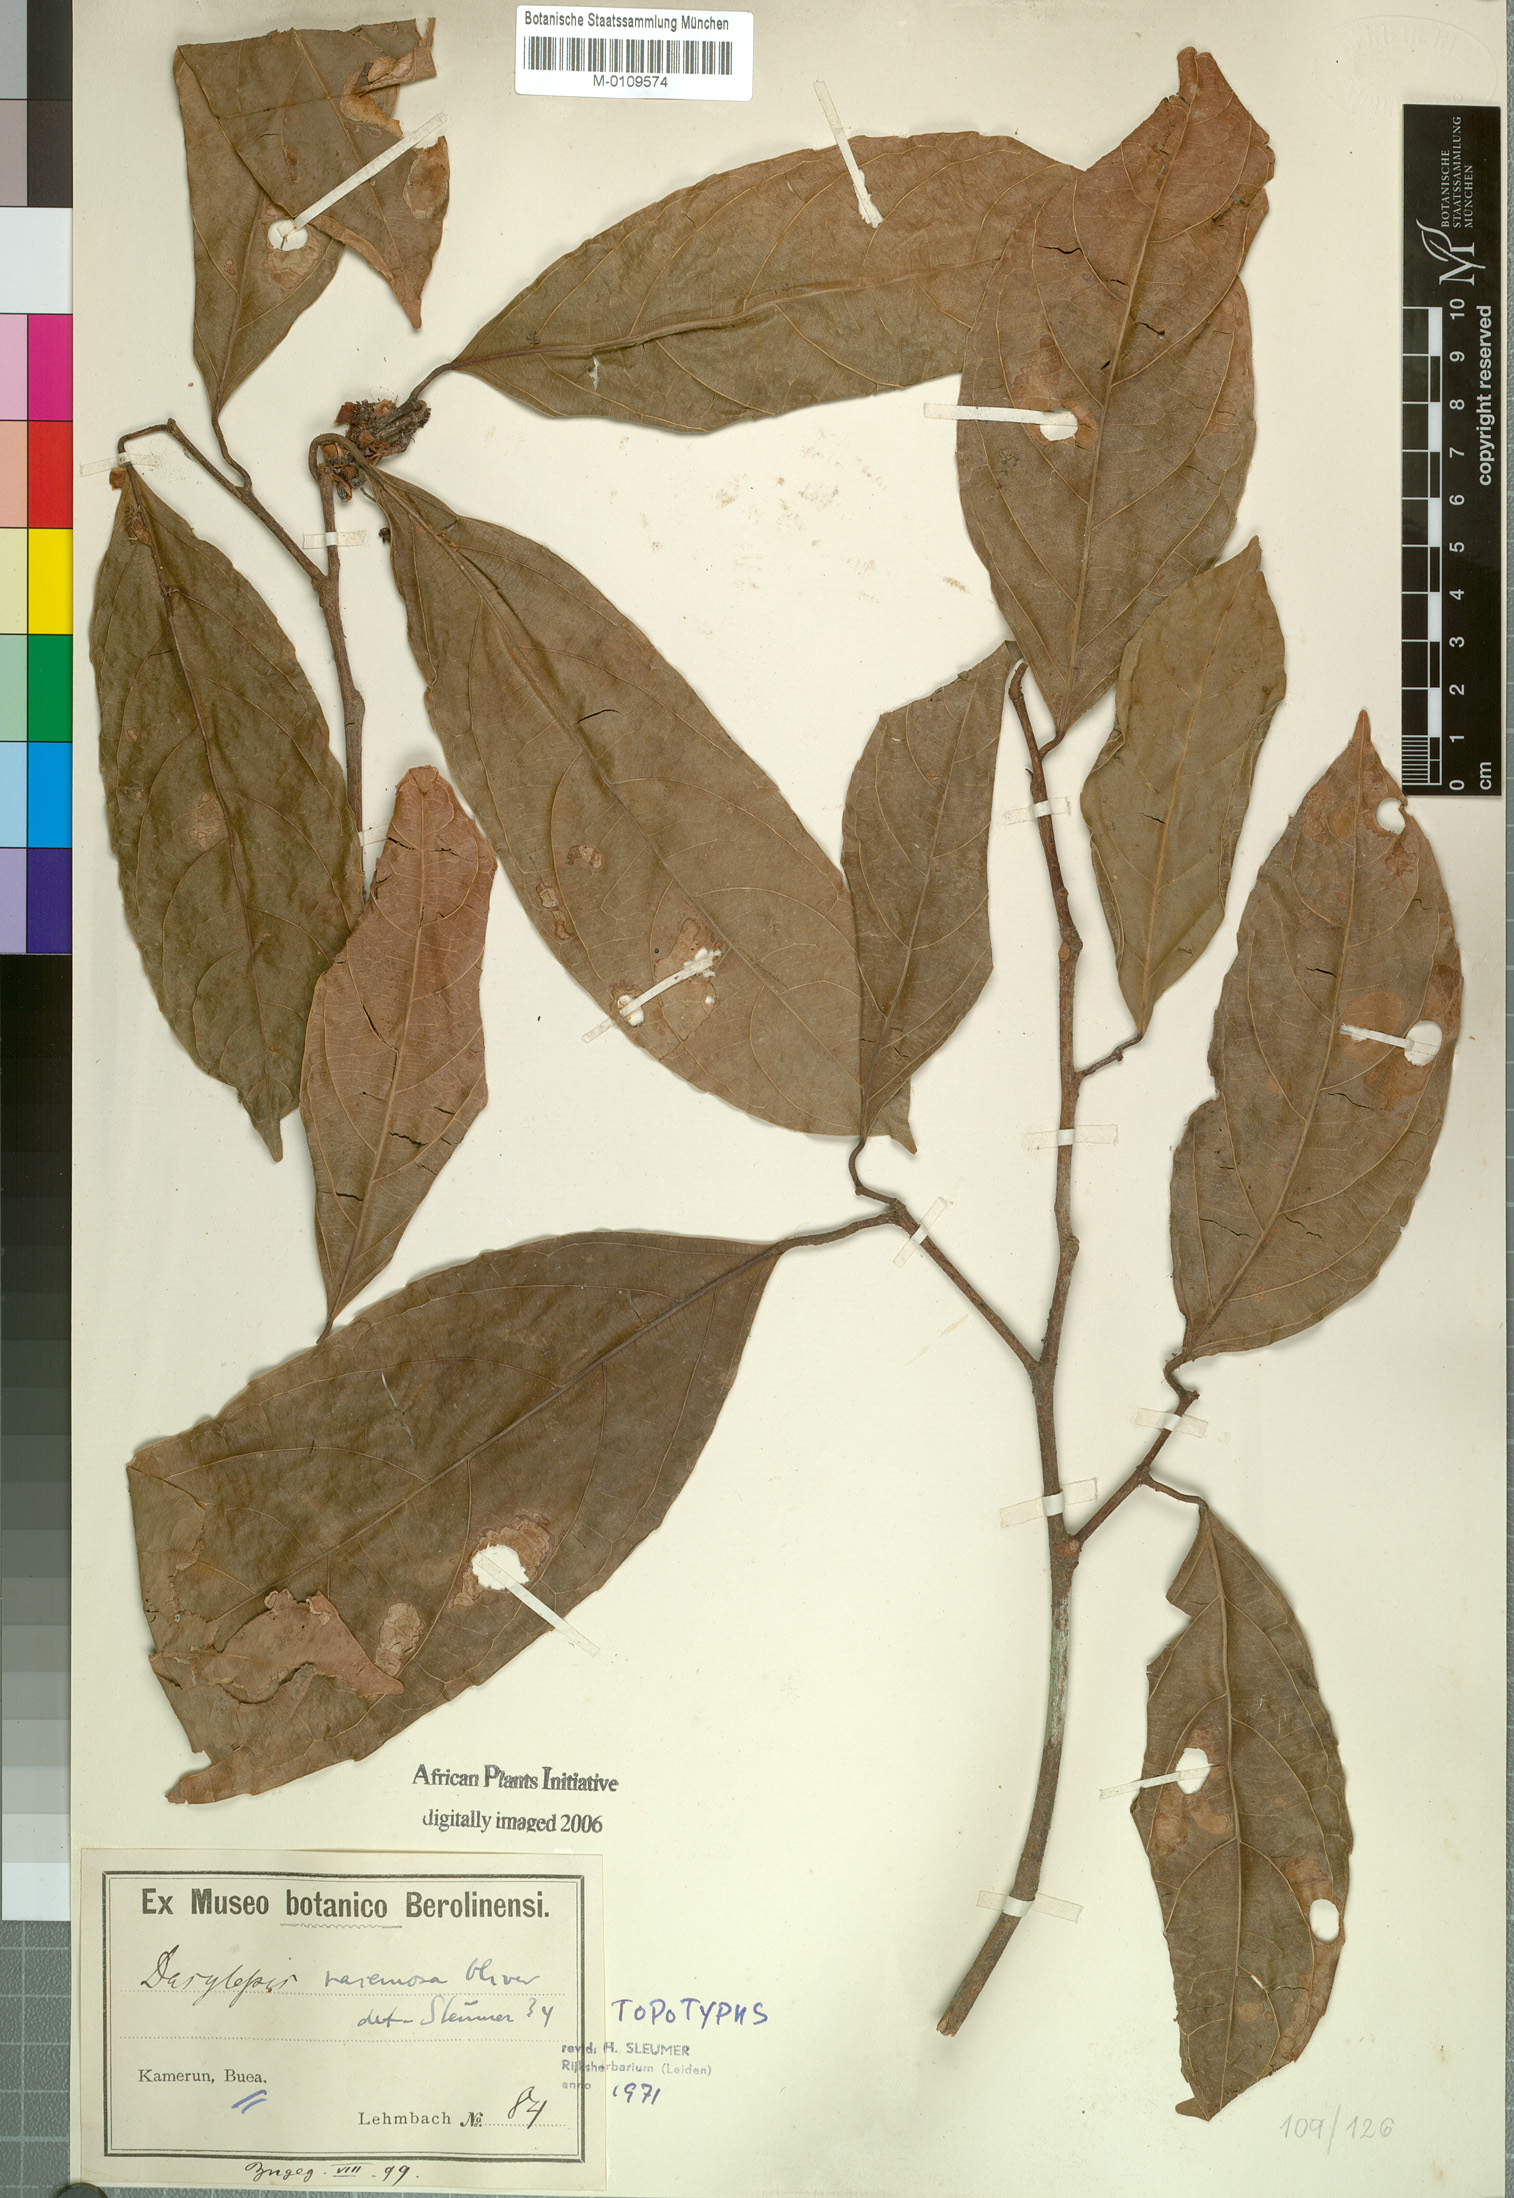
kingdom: Plantae
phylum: Tracheophyta
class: Magnoliopsida
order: Malpighiales
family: Achariaceae
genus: Dasylepis
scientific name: Dasylepis racemosa
